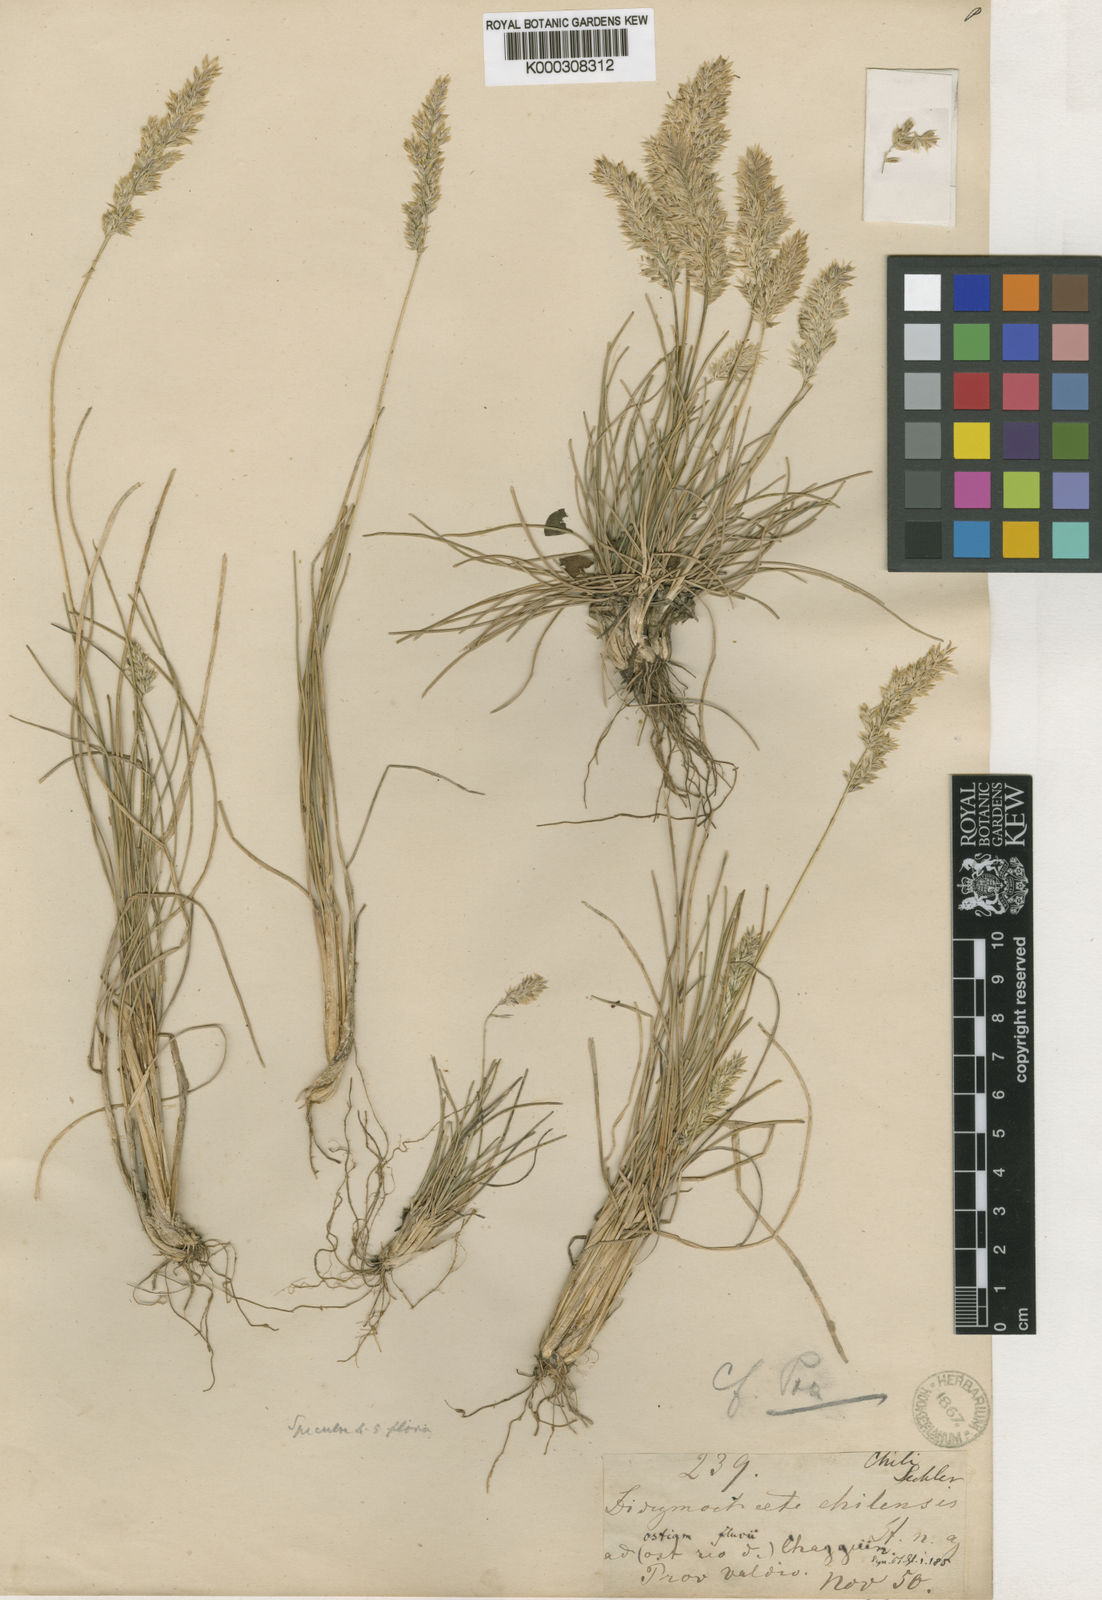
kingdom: Plantae
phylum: Tracheophyta
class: Liliopsida
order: Poales
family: Poaceae
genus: Agrostis
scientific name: Agrostis koelerioides
